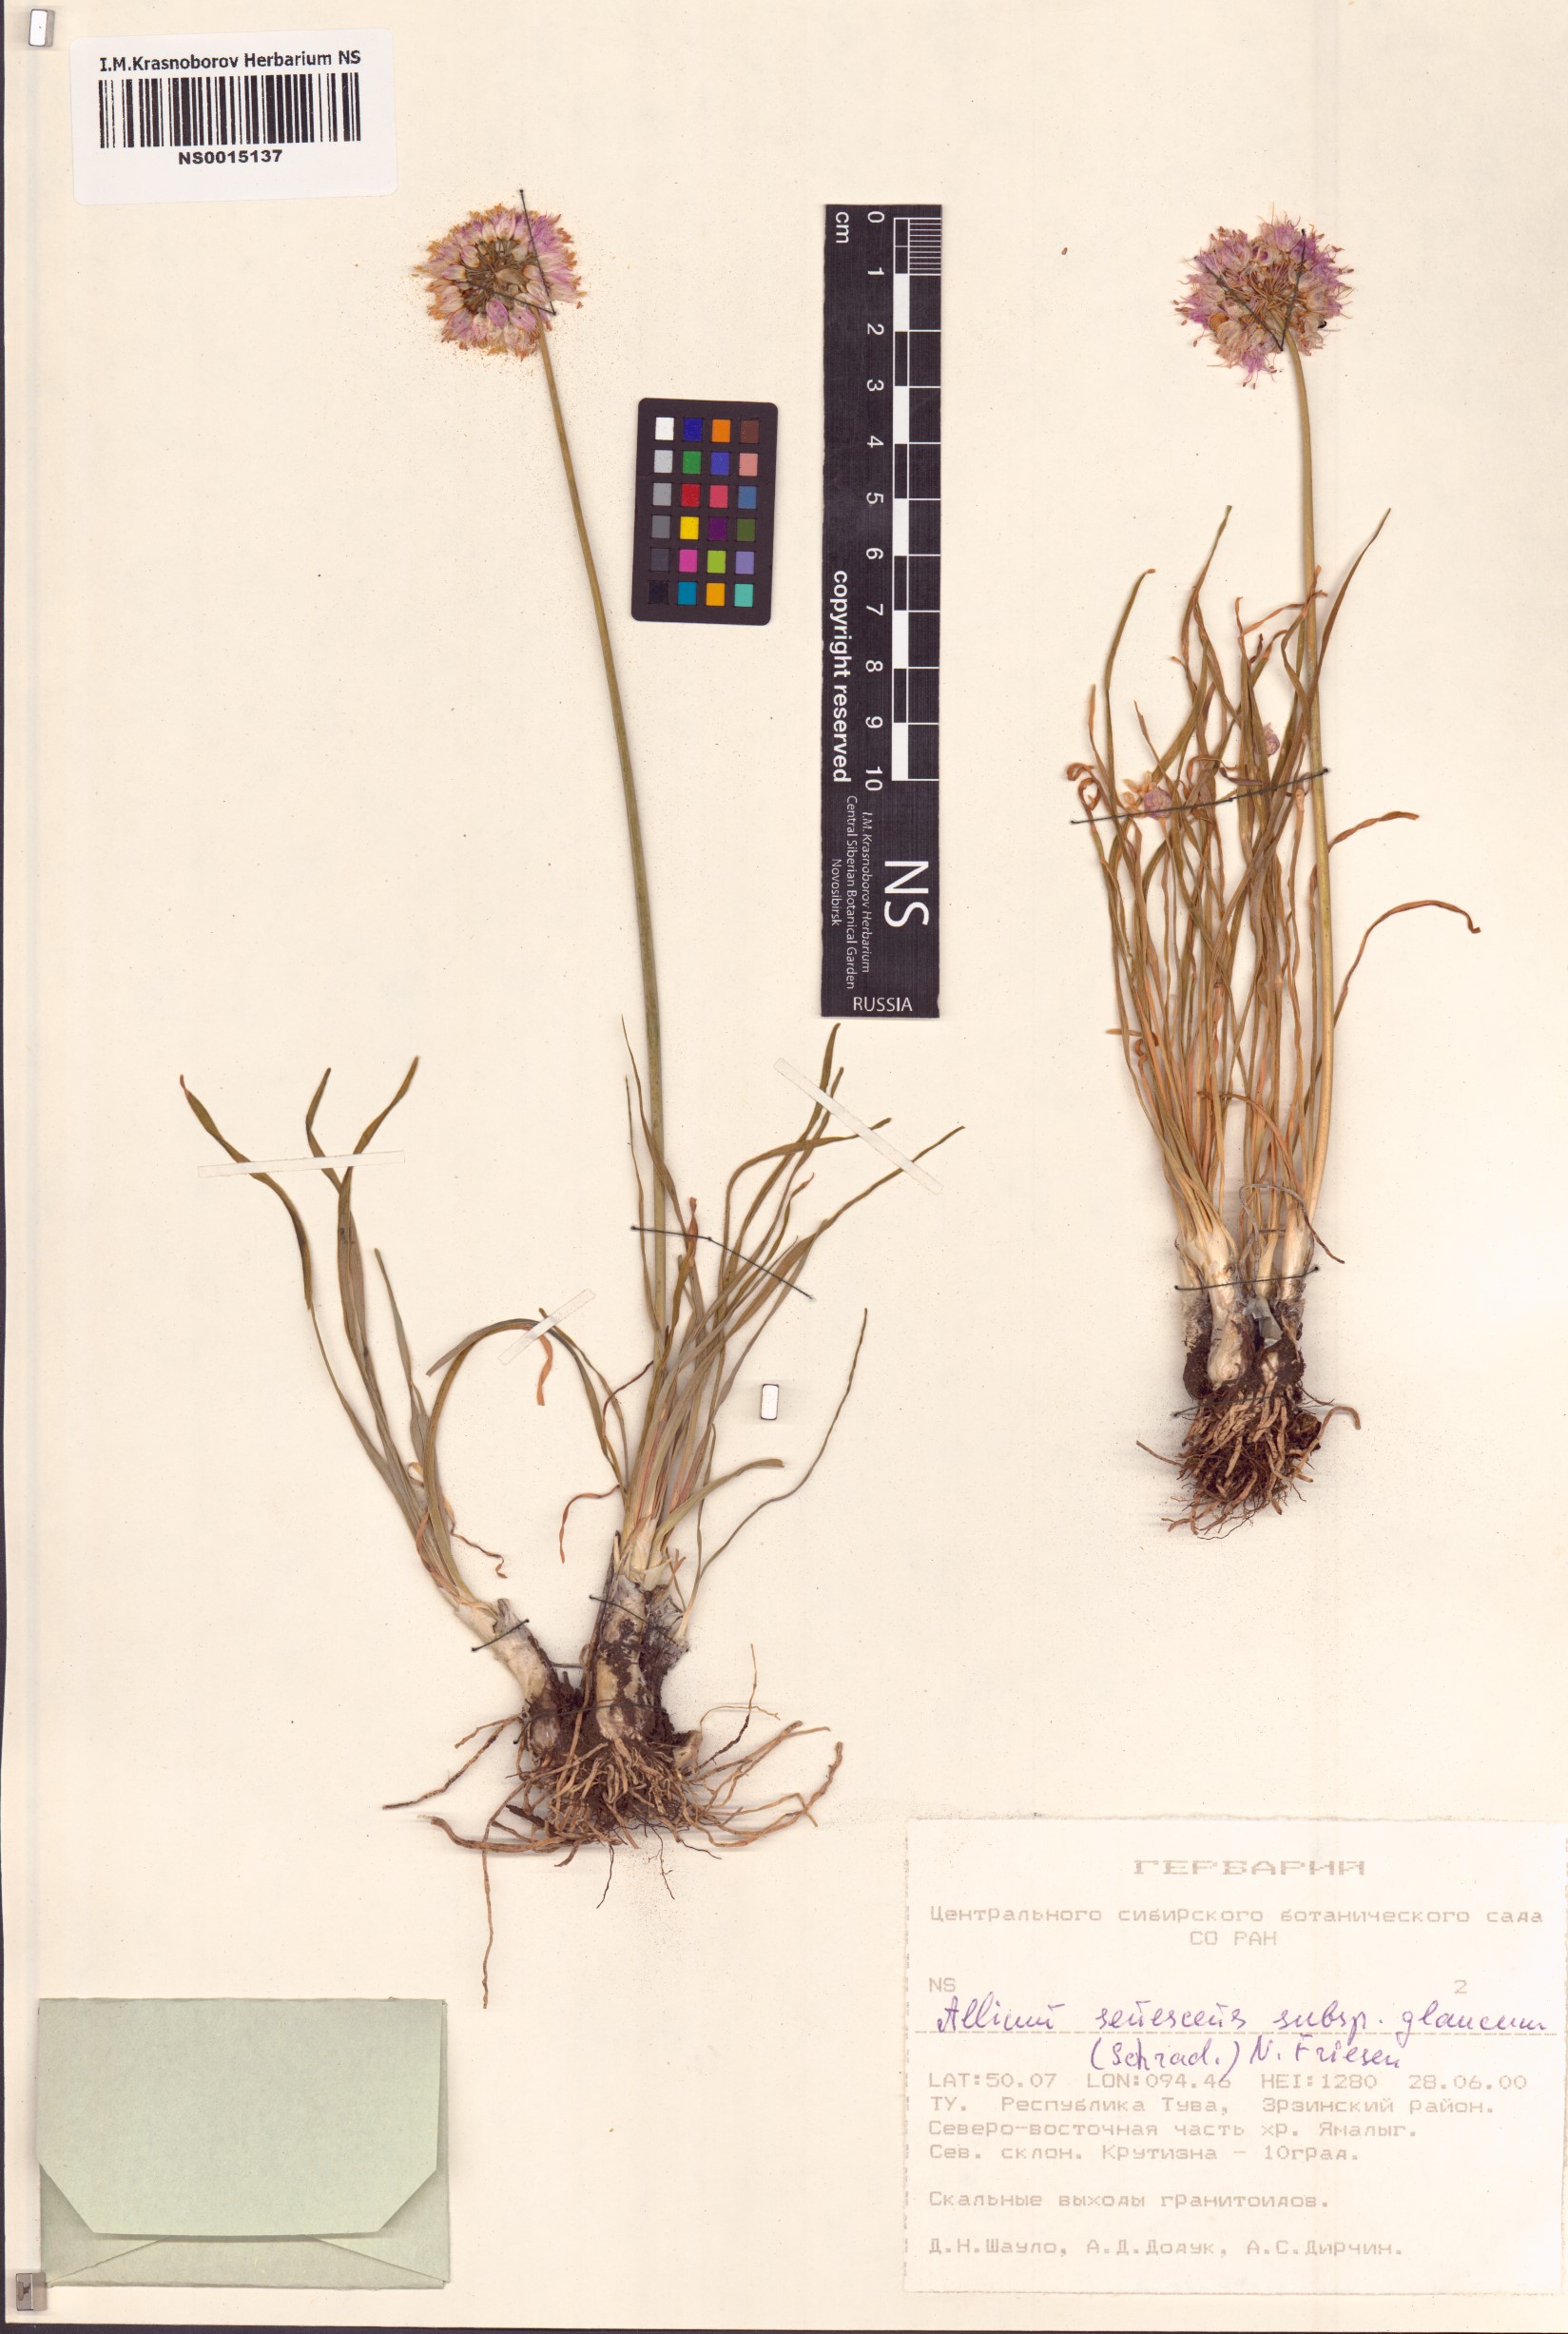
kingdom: Plantae
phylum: Tracheophyta
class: Liliopsida
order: Asparagales
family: Amaryllidaceae
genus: Allium
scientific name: Allium senescens
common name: German garlic
